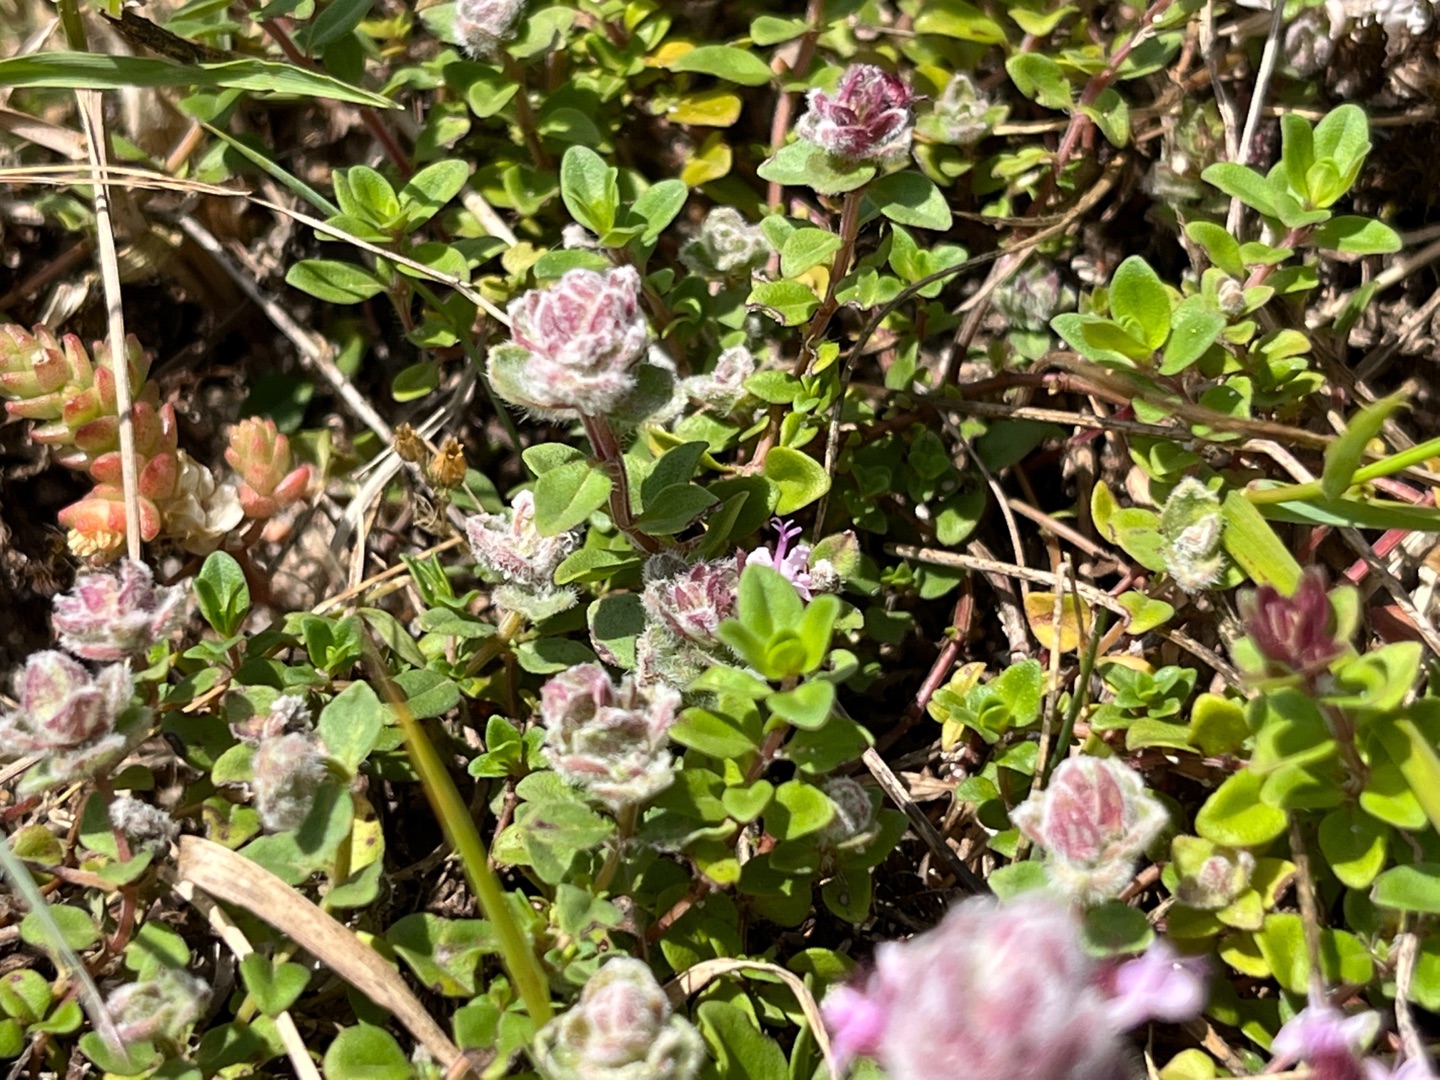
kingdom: Animalia
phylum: Arthropoda
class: Arachnida
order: Trombidiformes
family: Eriophyidae
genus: Aceria
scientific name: Aceria thomasi
